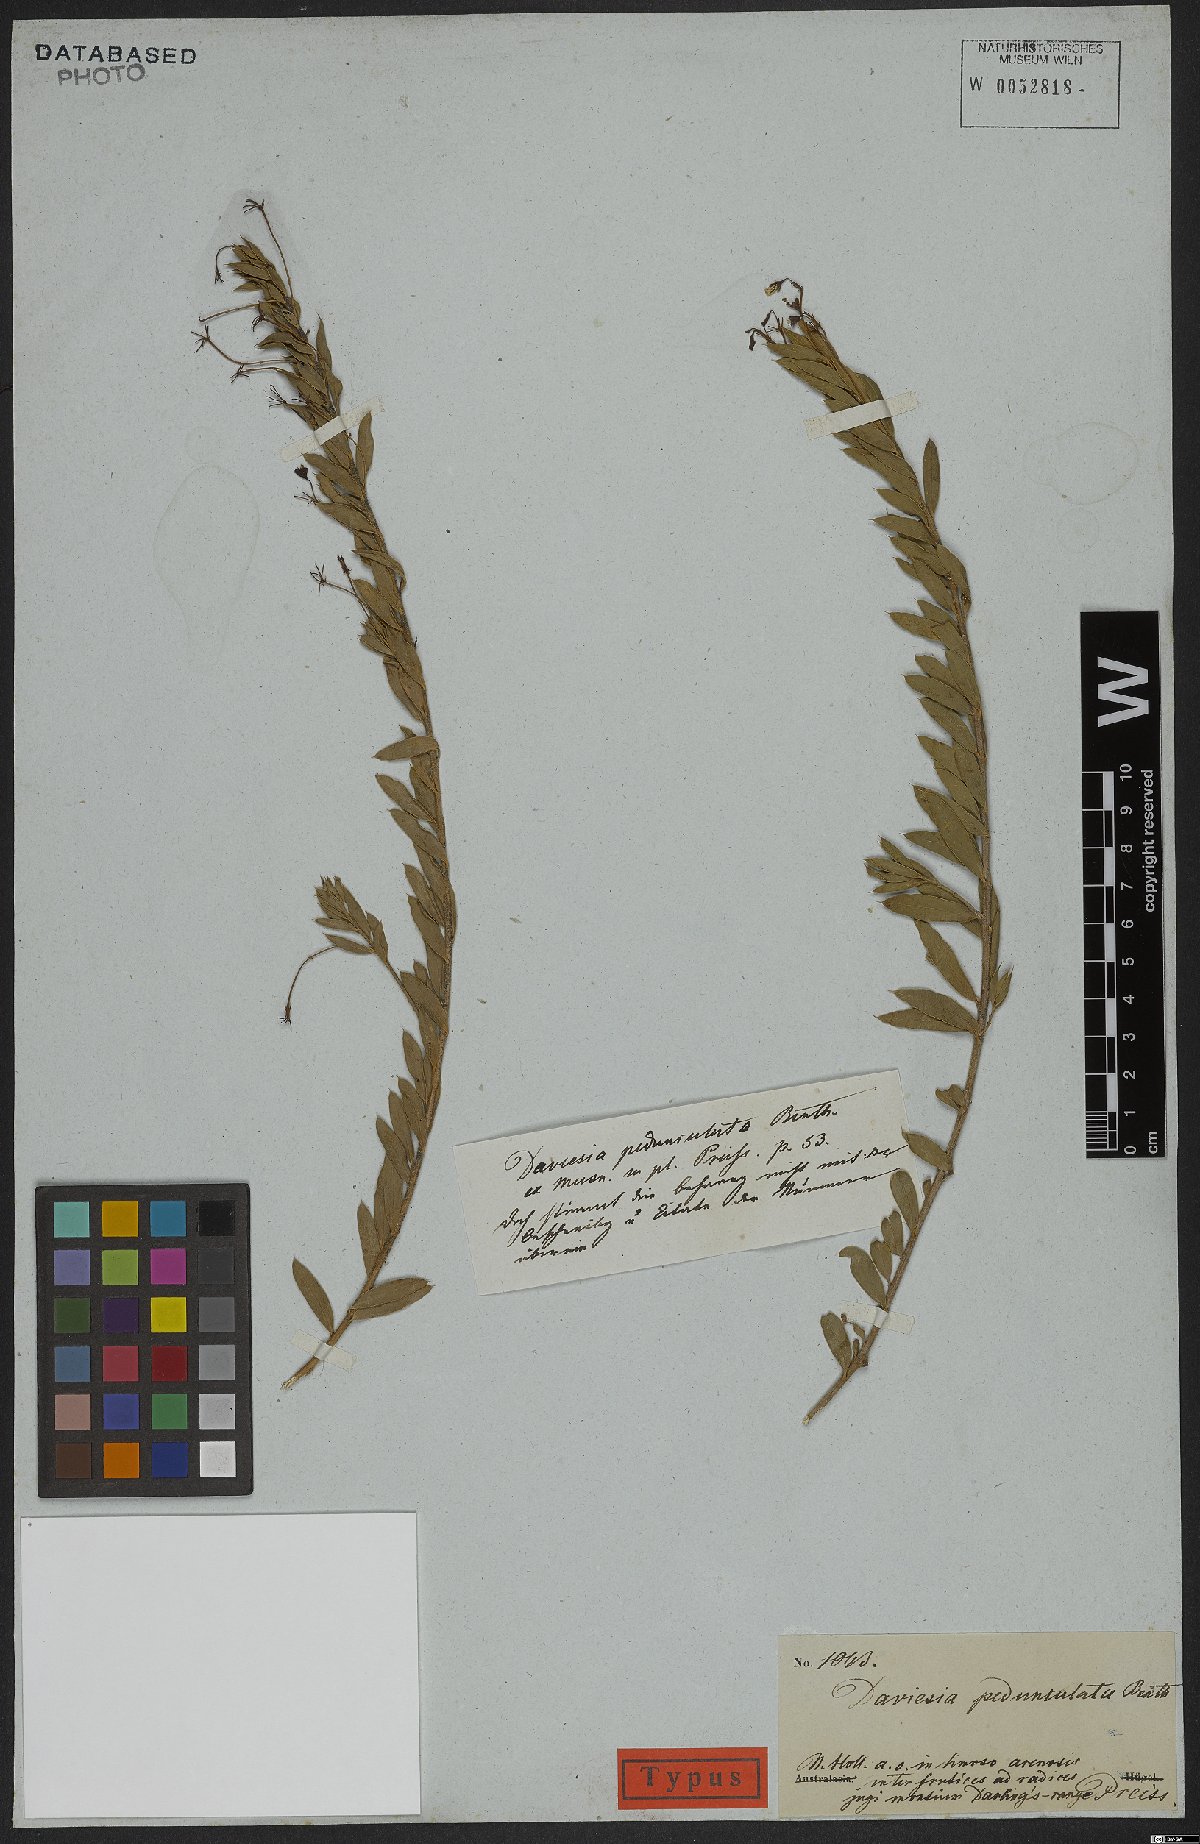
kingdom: Plantae
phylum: Tracheophyta
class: Magnoliopsida
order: Fabales
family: Fabaceae
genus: Daviesia
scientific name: Daviesia pedunculata
